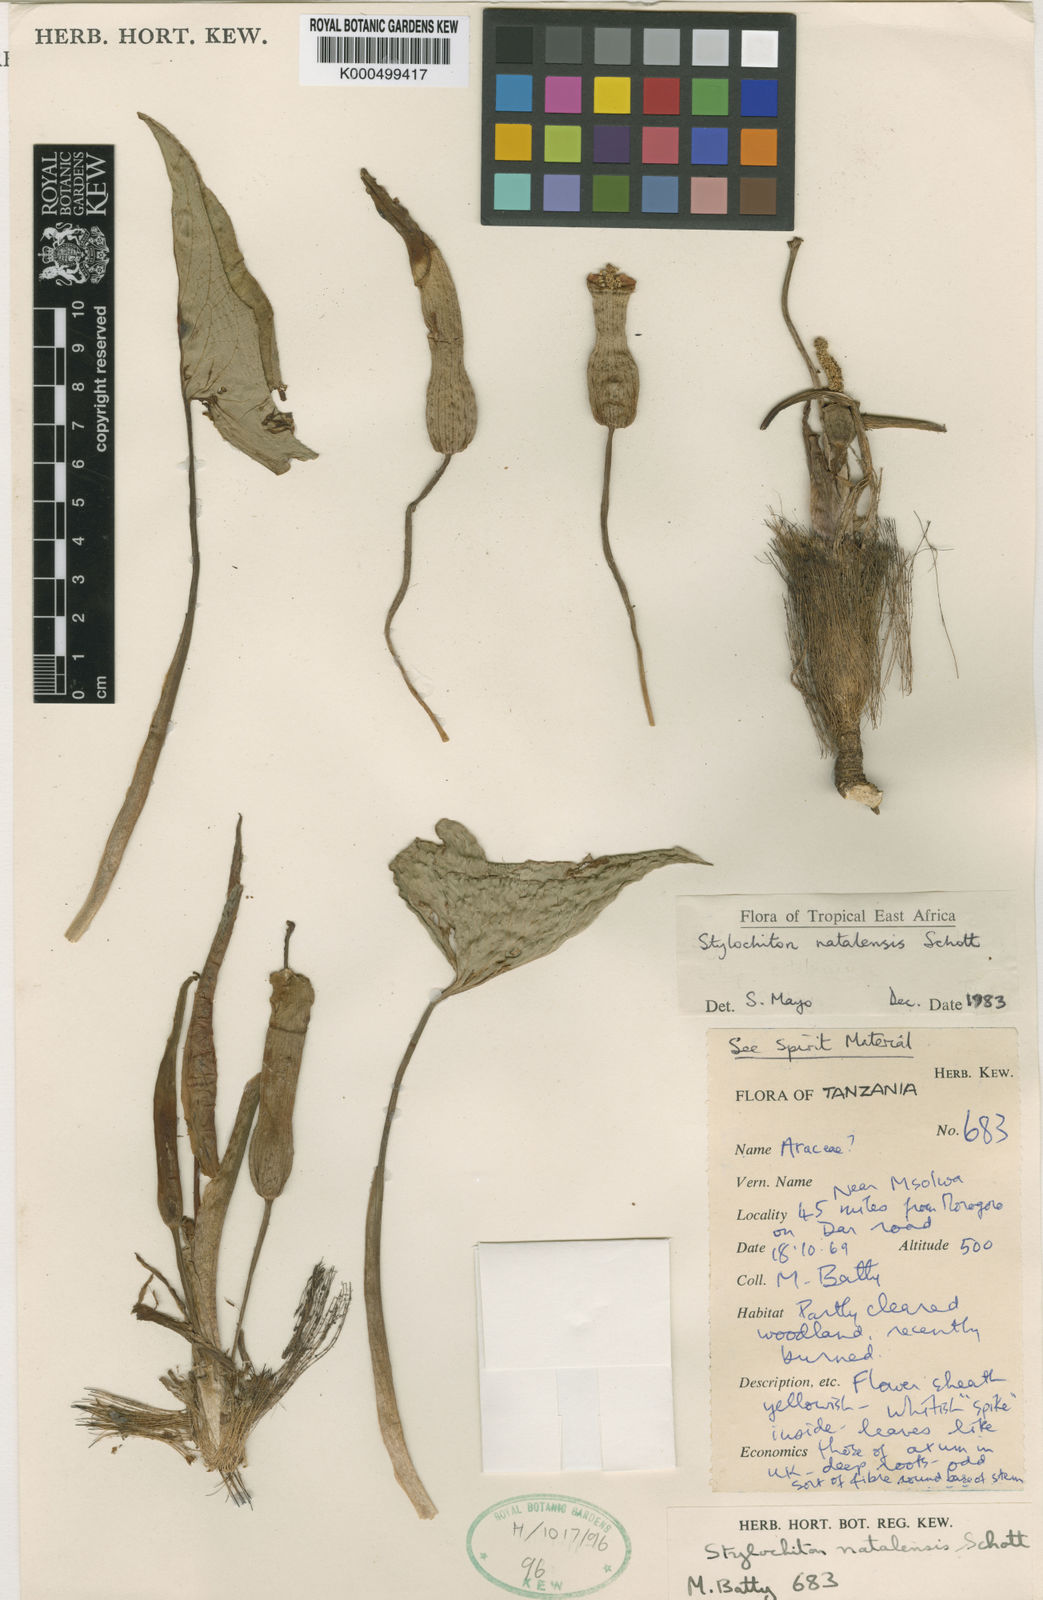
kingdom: Plantae
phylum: Tracheophyta
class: Liliopsida
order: Alismatales
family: Araceae
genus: Stylochaeton
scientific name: Stylochaeton
